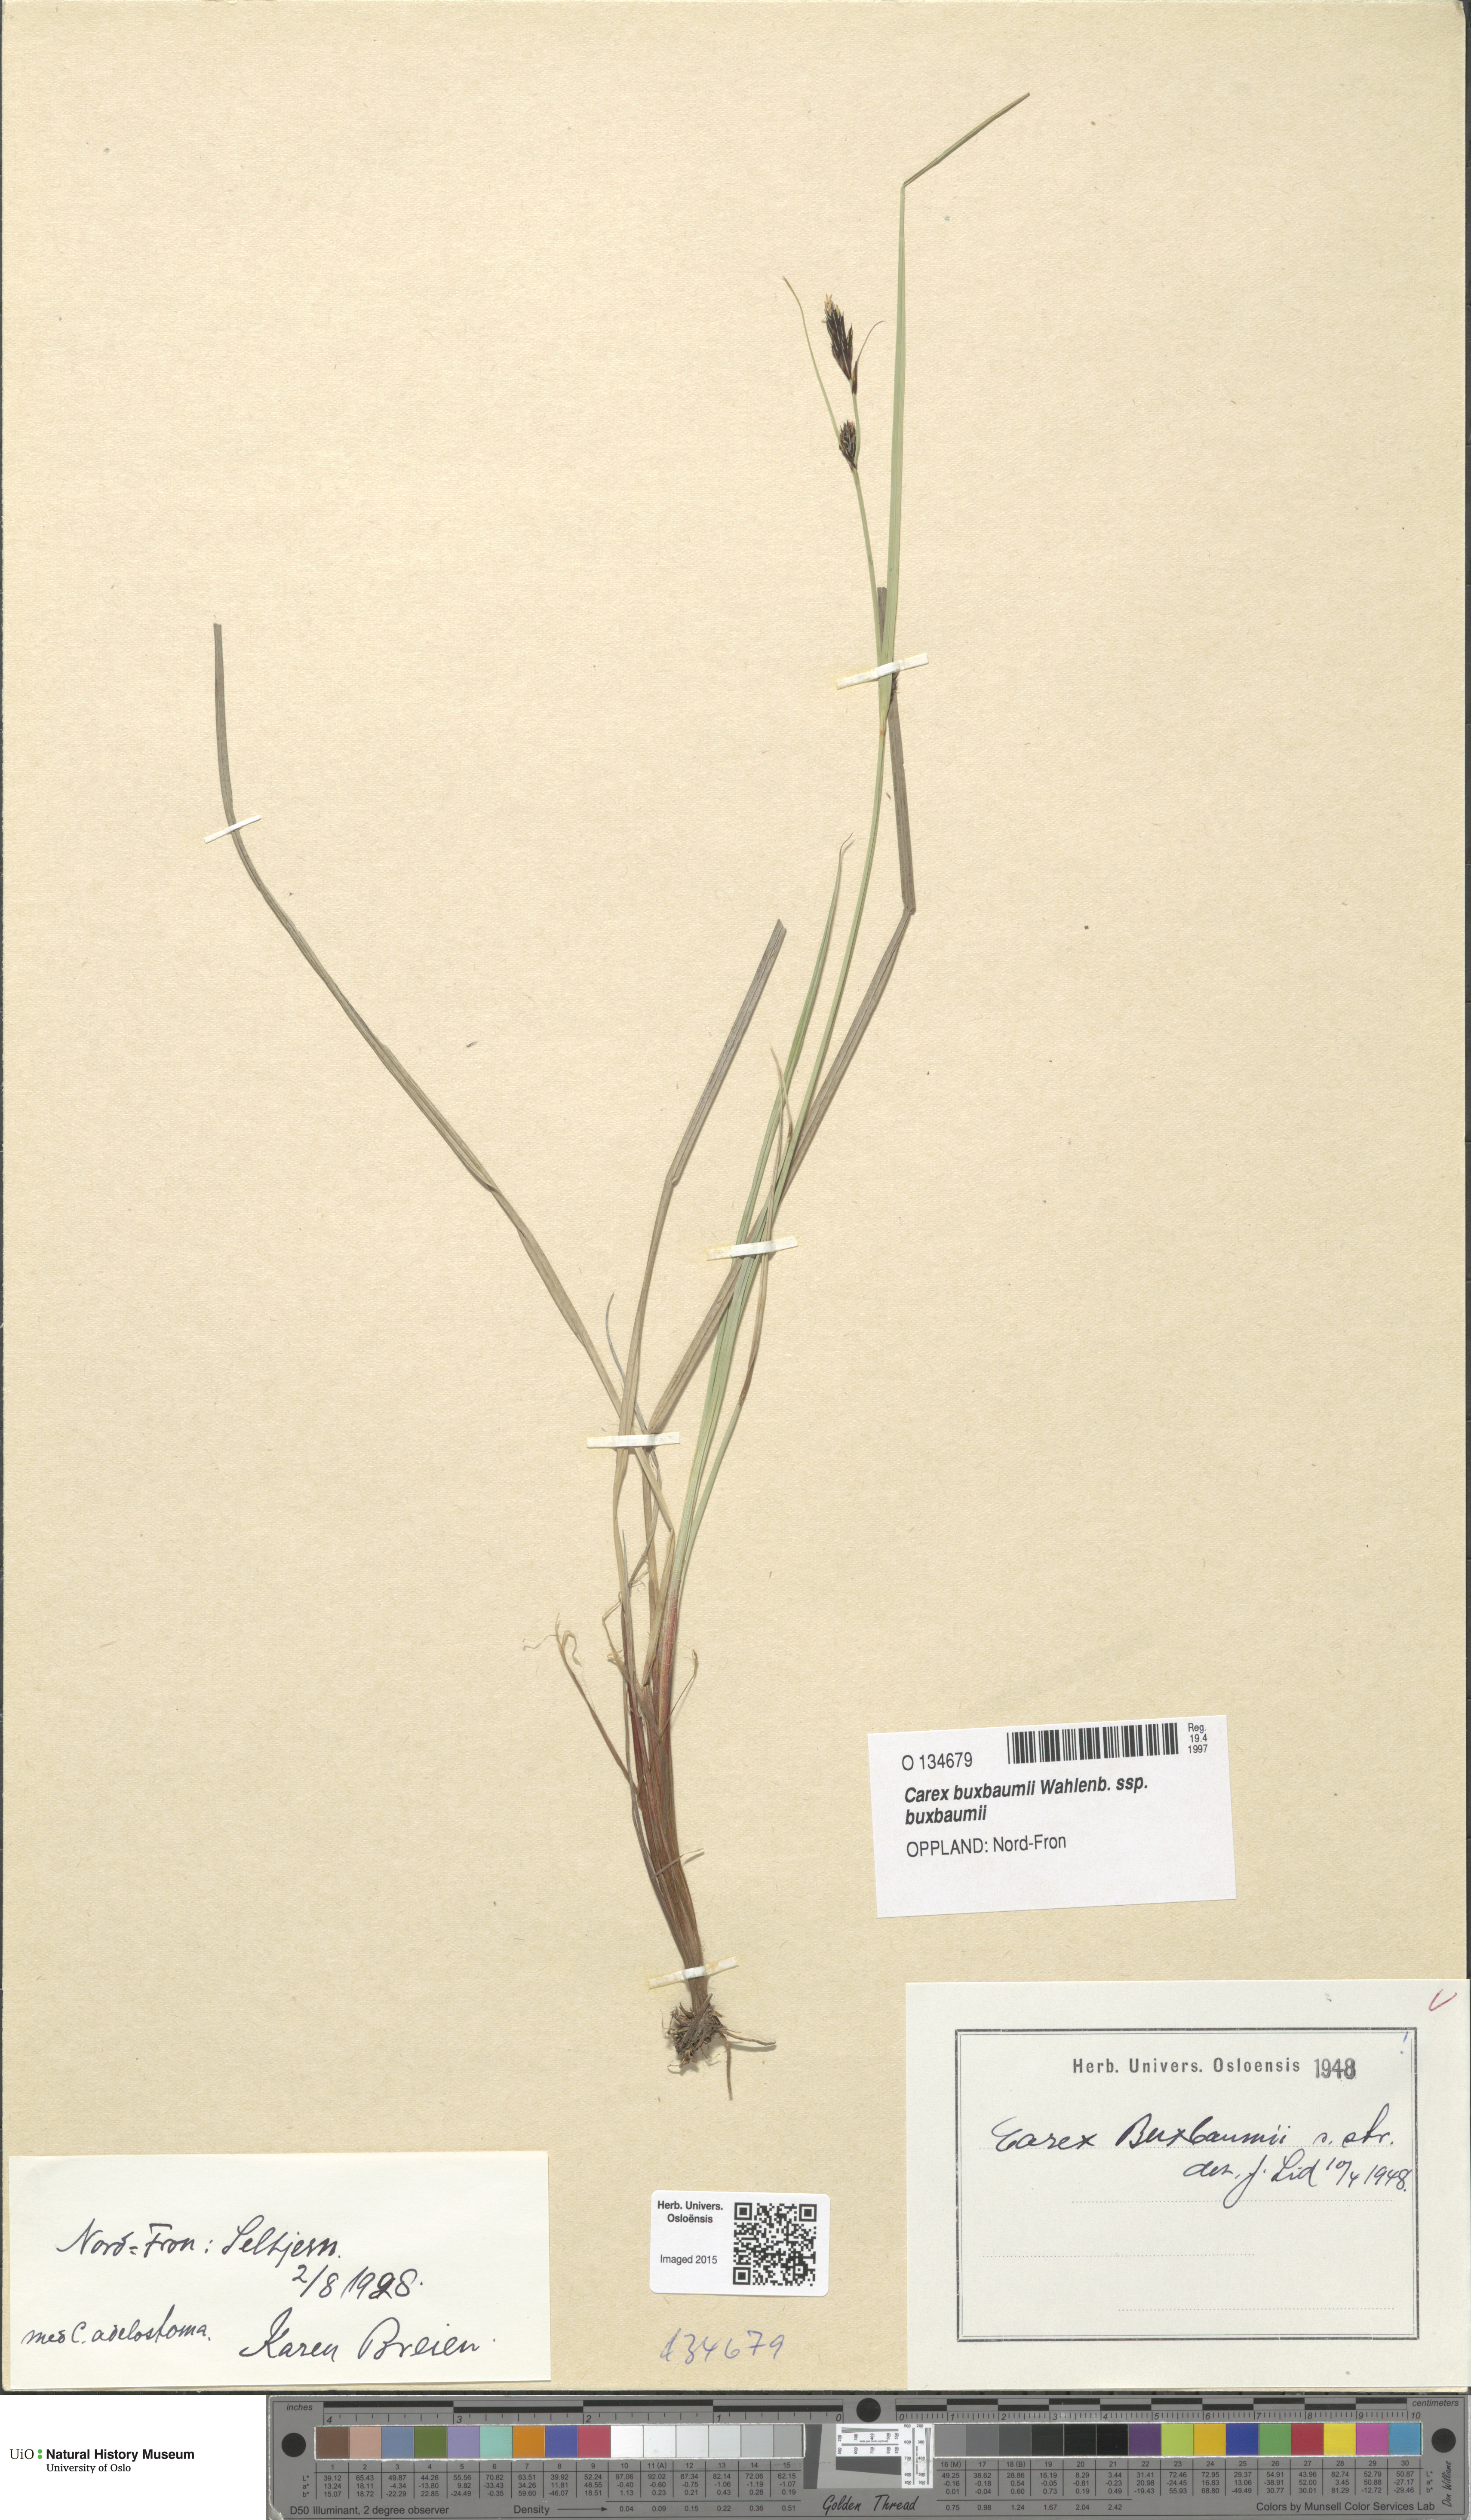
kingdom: Plantae
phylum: Tracheophyta
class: Liliopsida
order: Poales
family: Cyperaceae
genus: Carex
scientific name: Carex buxbaumii
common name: Club sedge
